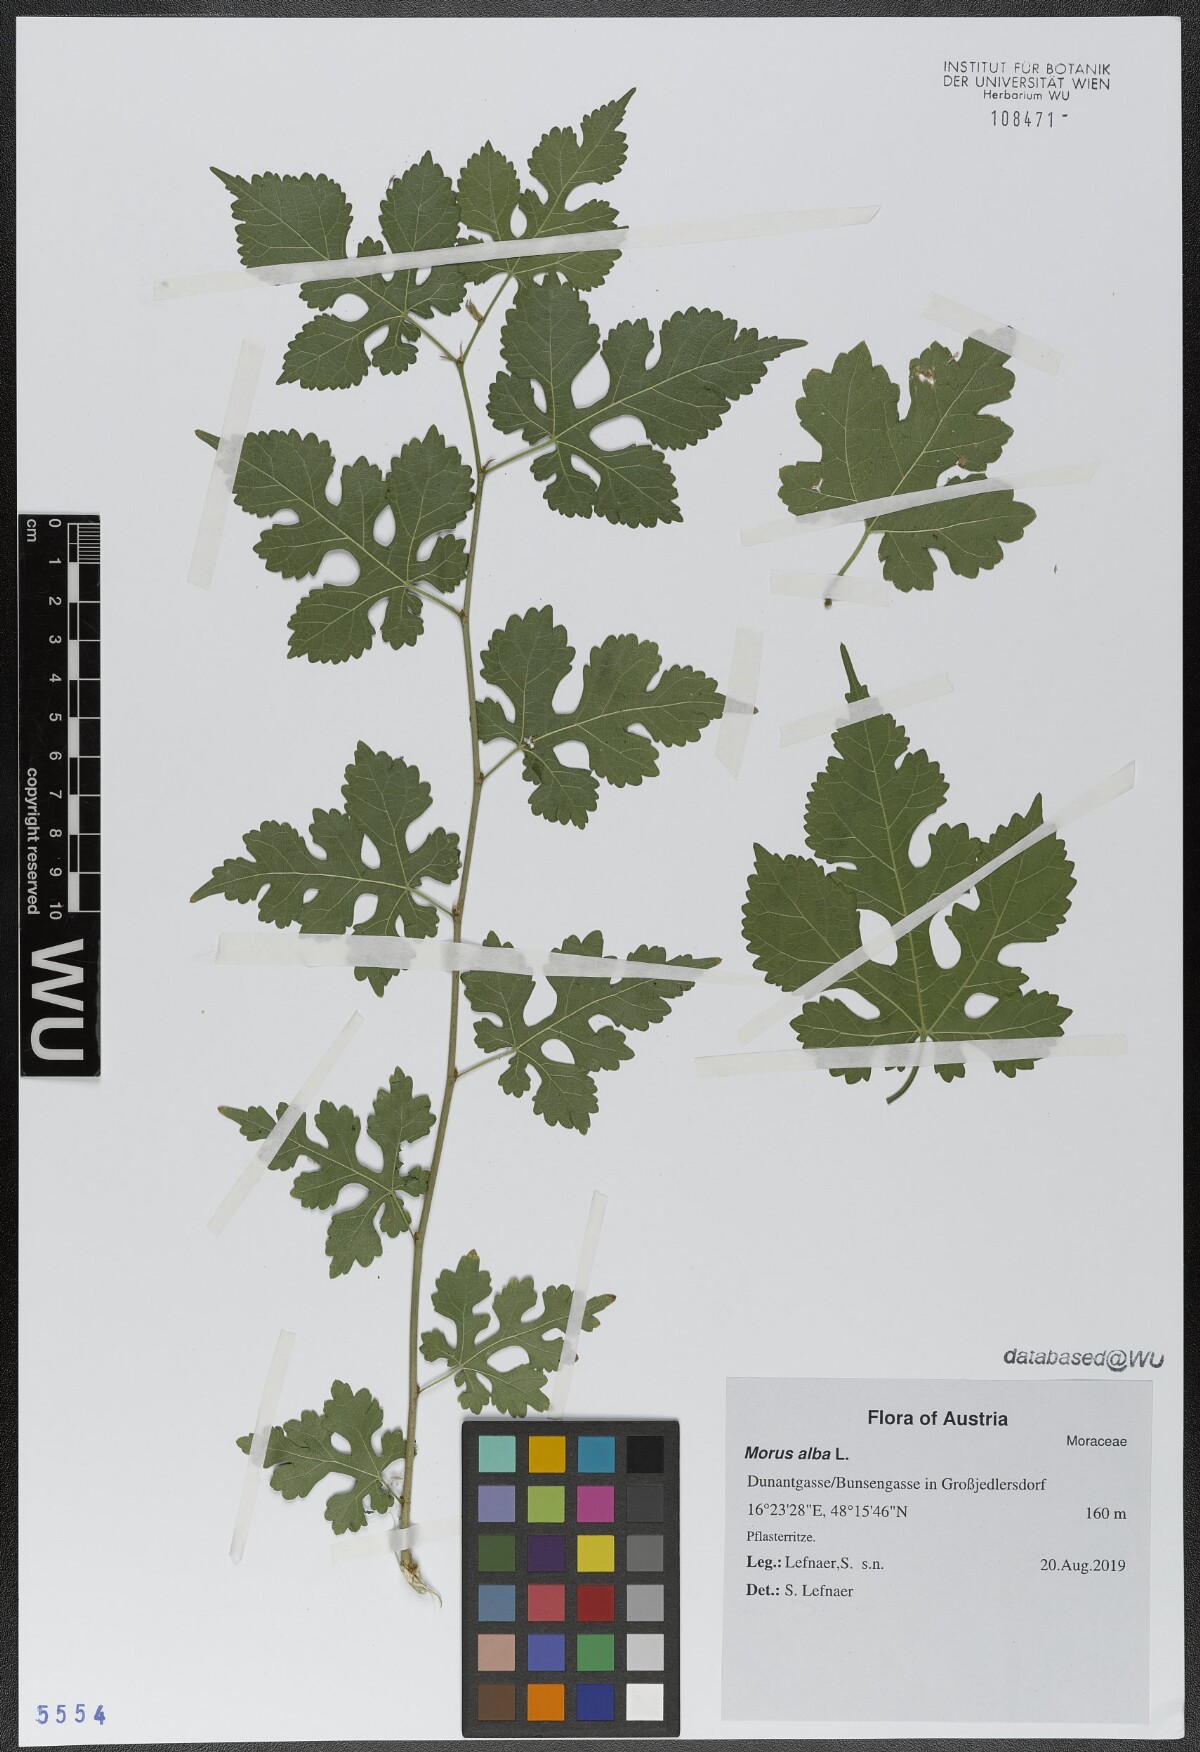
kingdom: Plantae
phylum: Tracheophyta
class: Magnoliopsida
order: Rosales
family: Moraceae
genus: Morus
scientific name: Morus alba
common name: White mulberry
